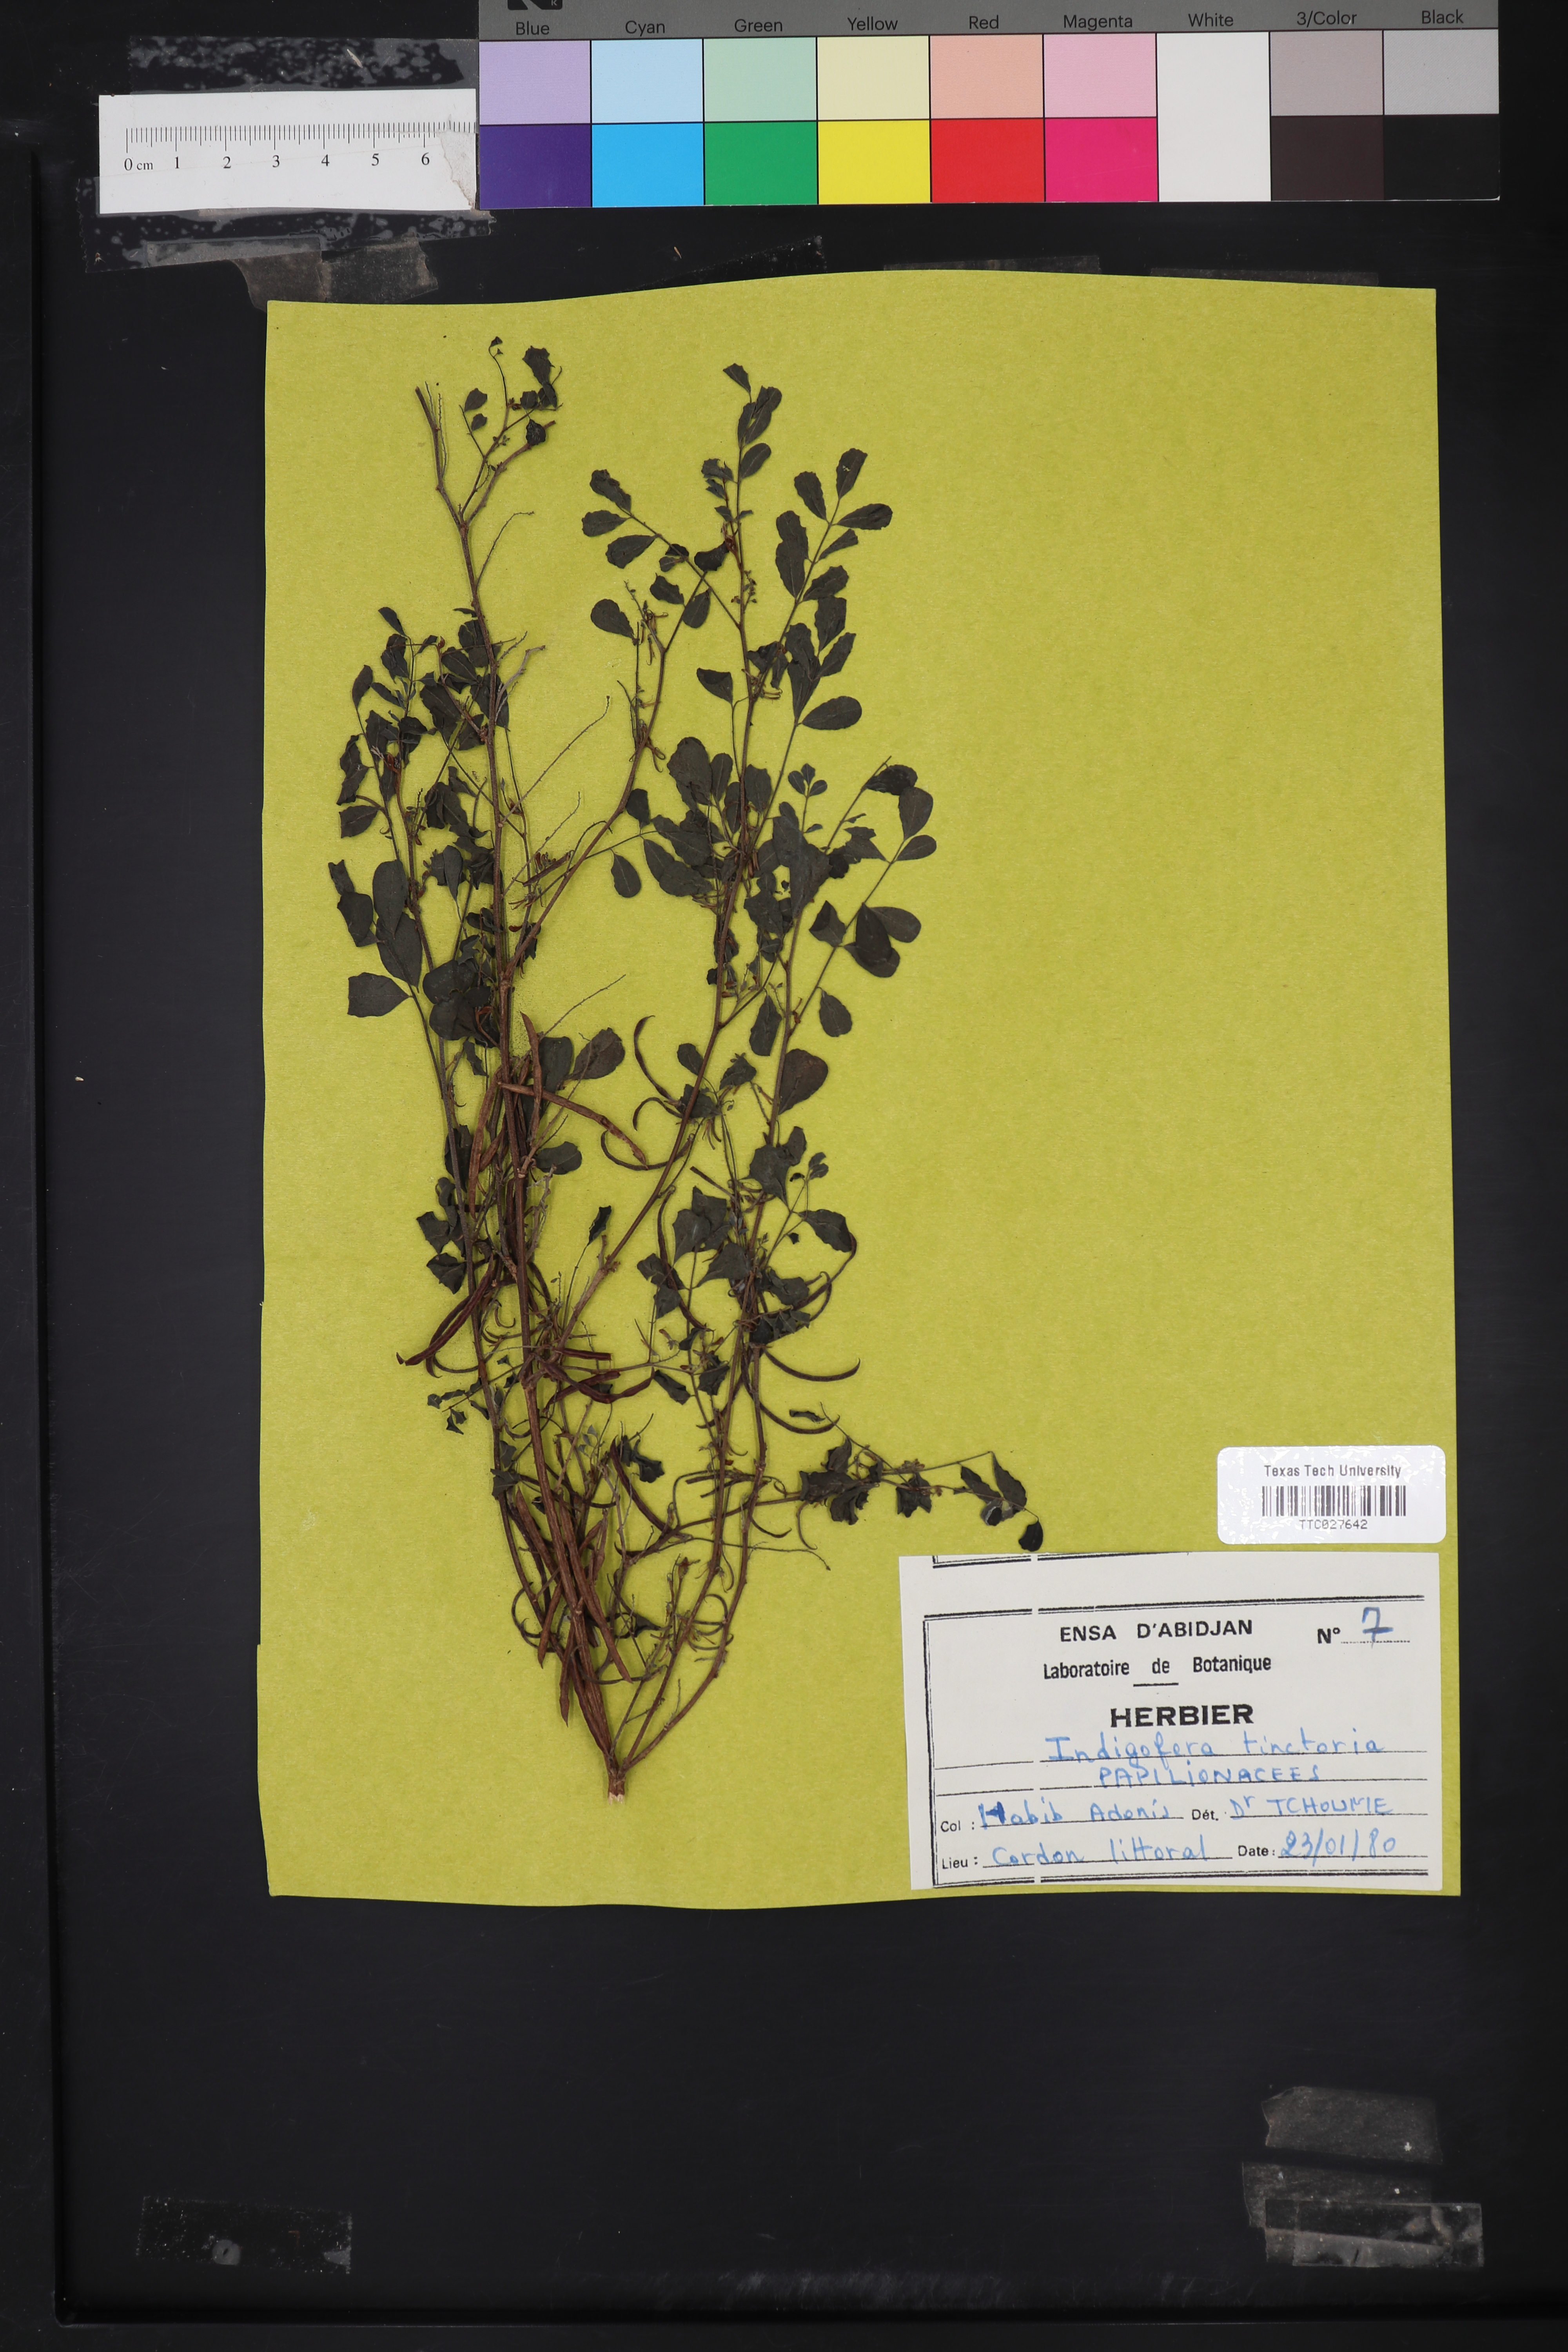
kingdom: Plantae
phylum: Tracheophyta
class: Magnoliopsida
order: Fabales
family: Fabaceae
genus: Indigofera
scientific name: Indigofera tinctoria
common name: True indigo
